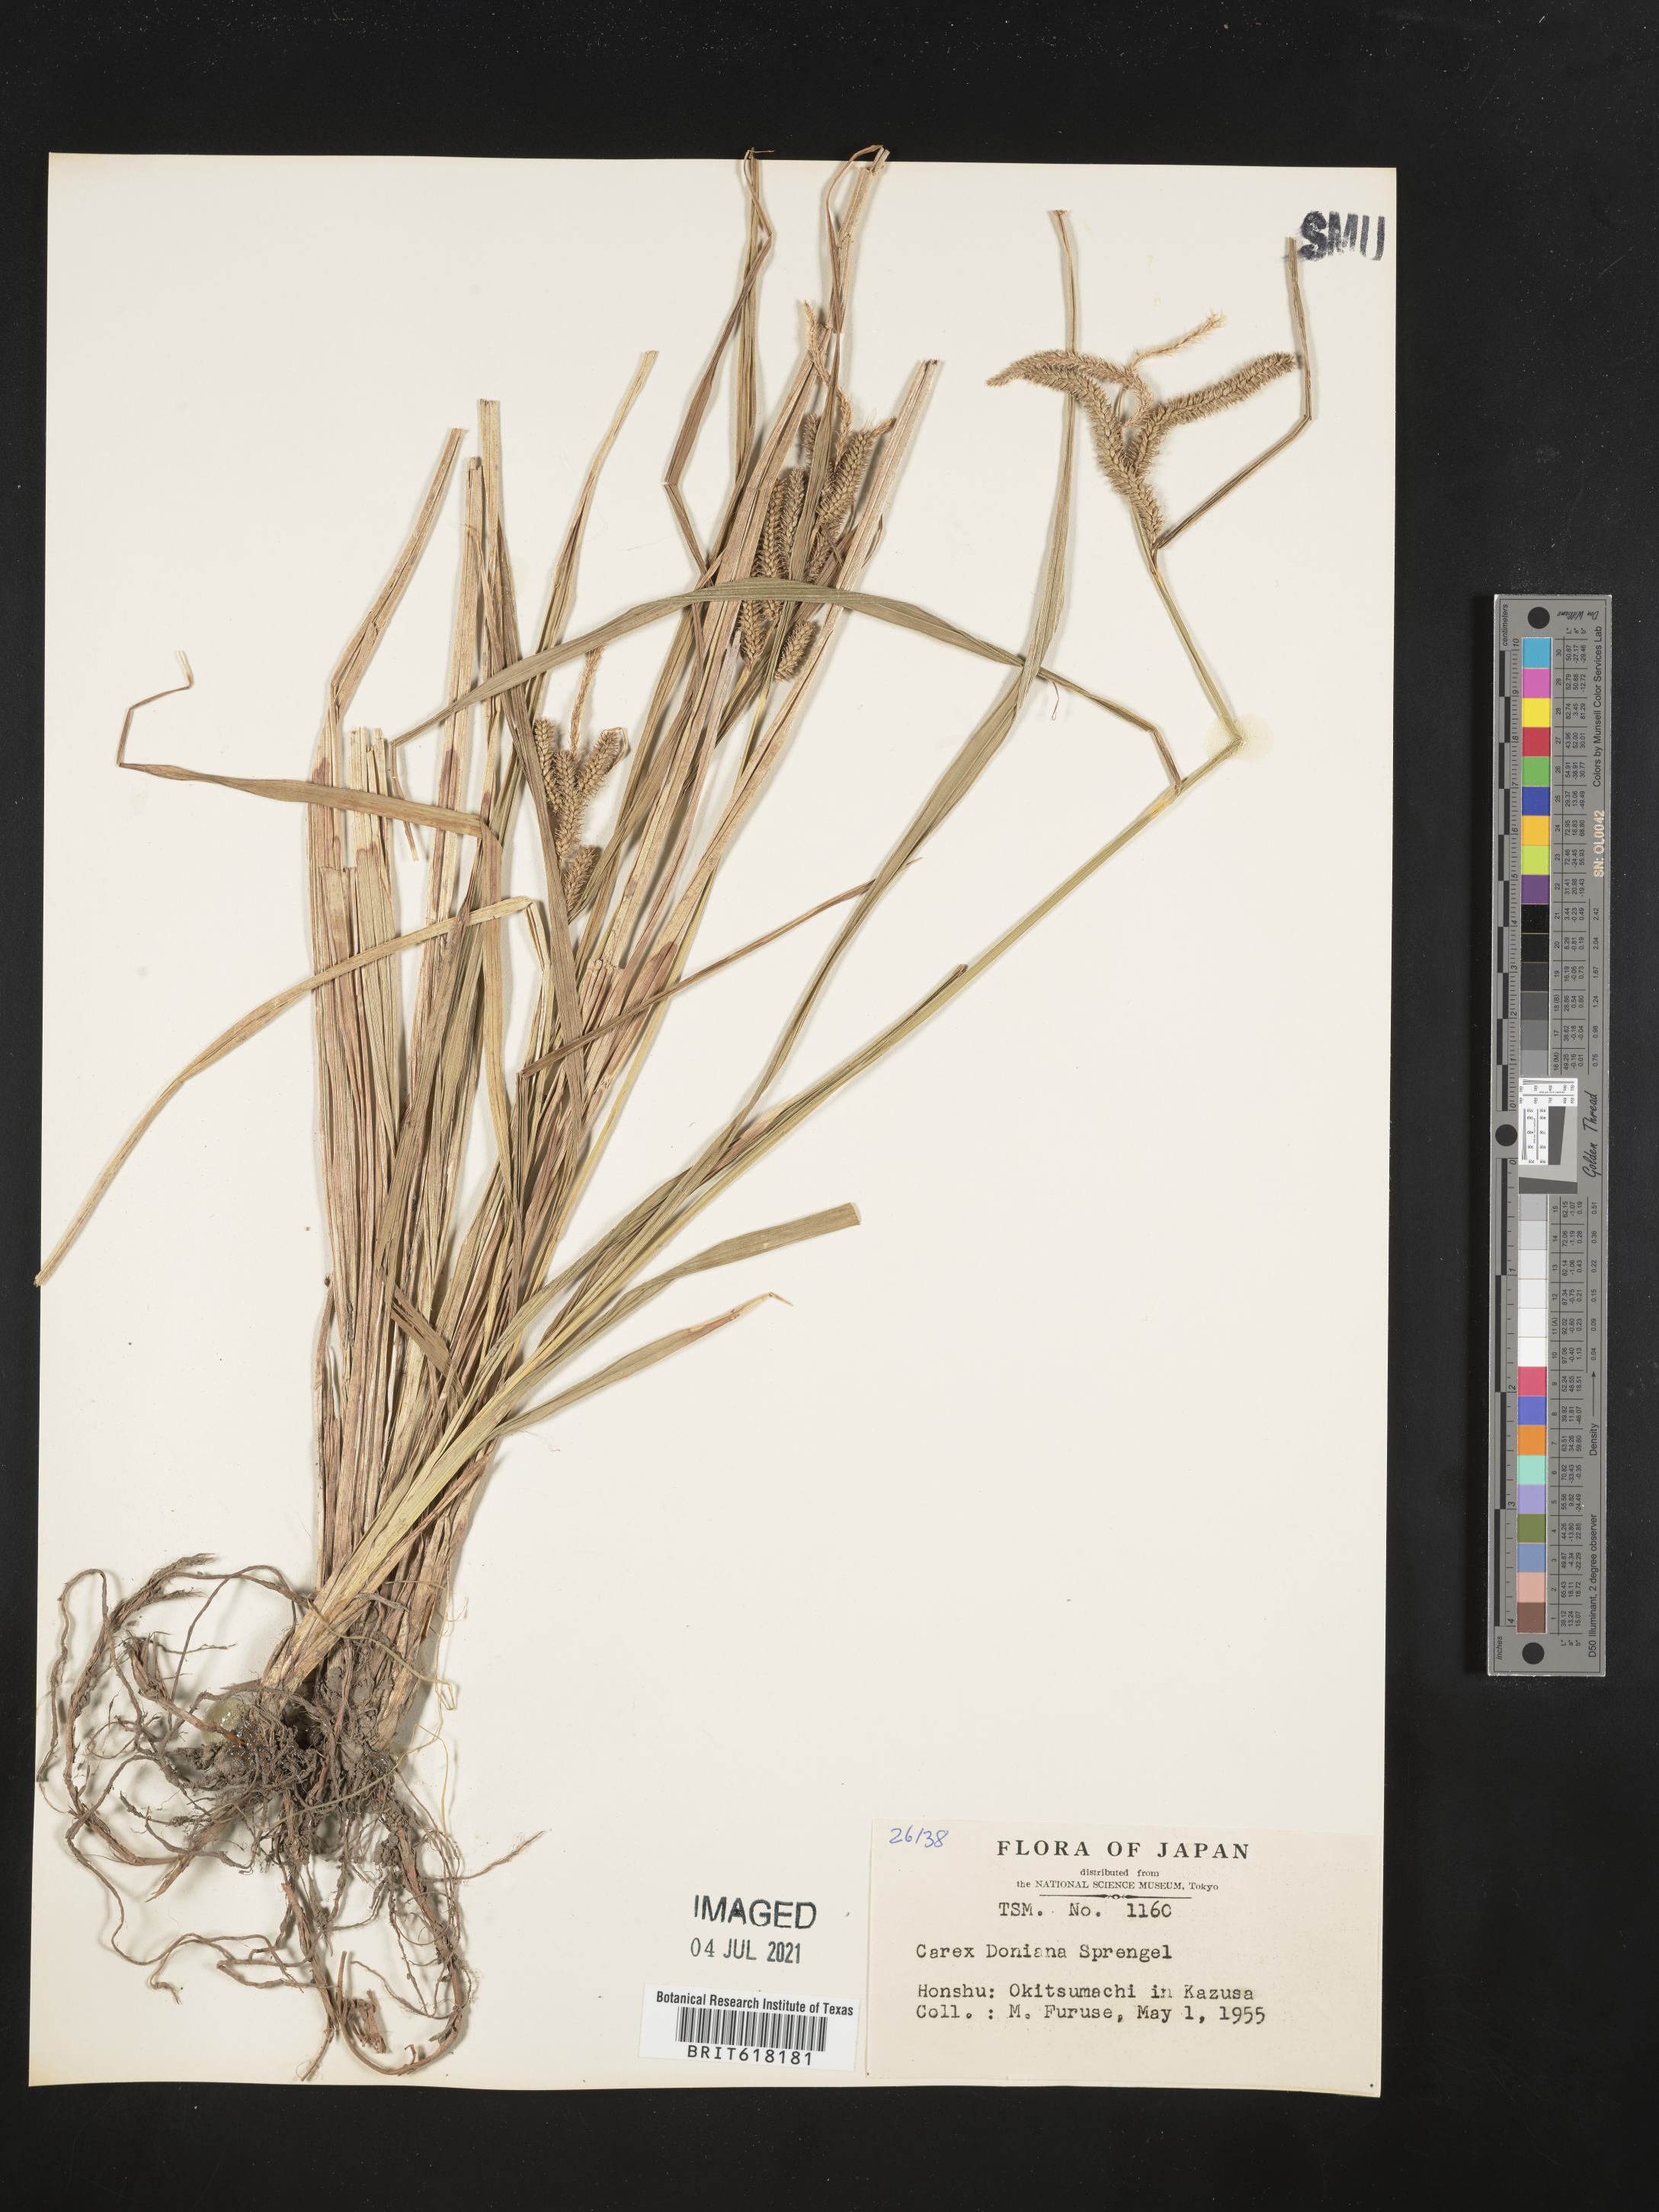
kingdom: Plantae
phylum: Tracheophyta
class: Liliopsida
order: Poales
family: Cyperaceae
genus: Carex
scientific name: Carex doniana
